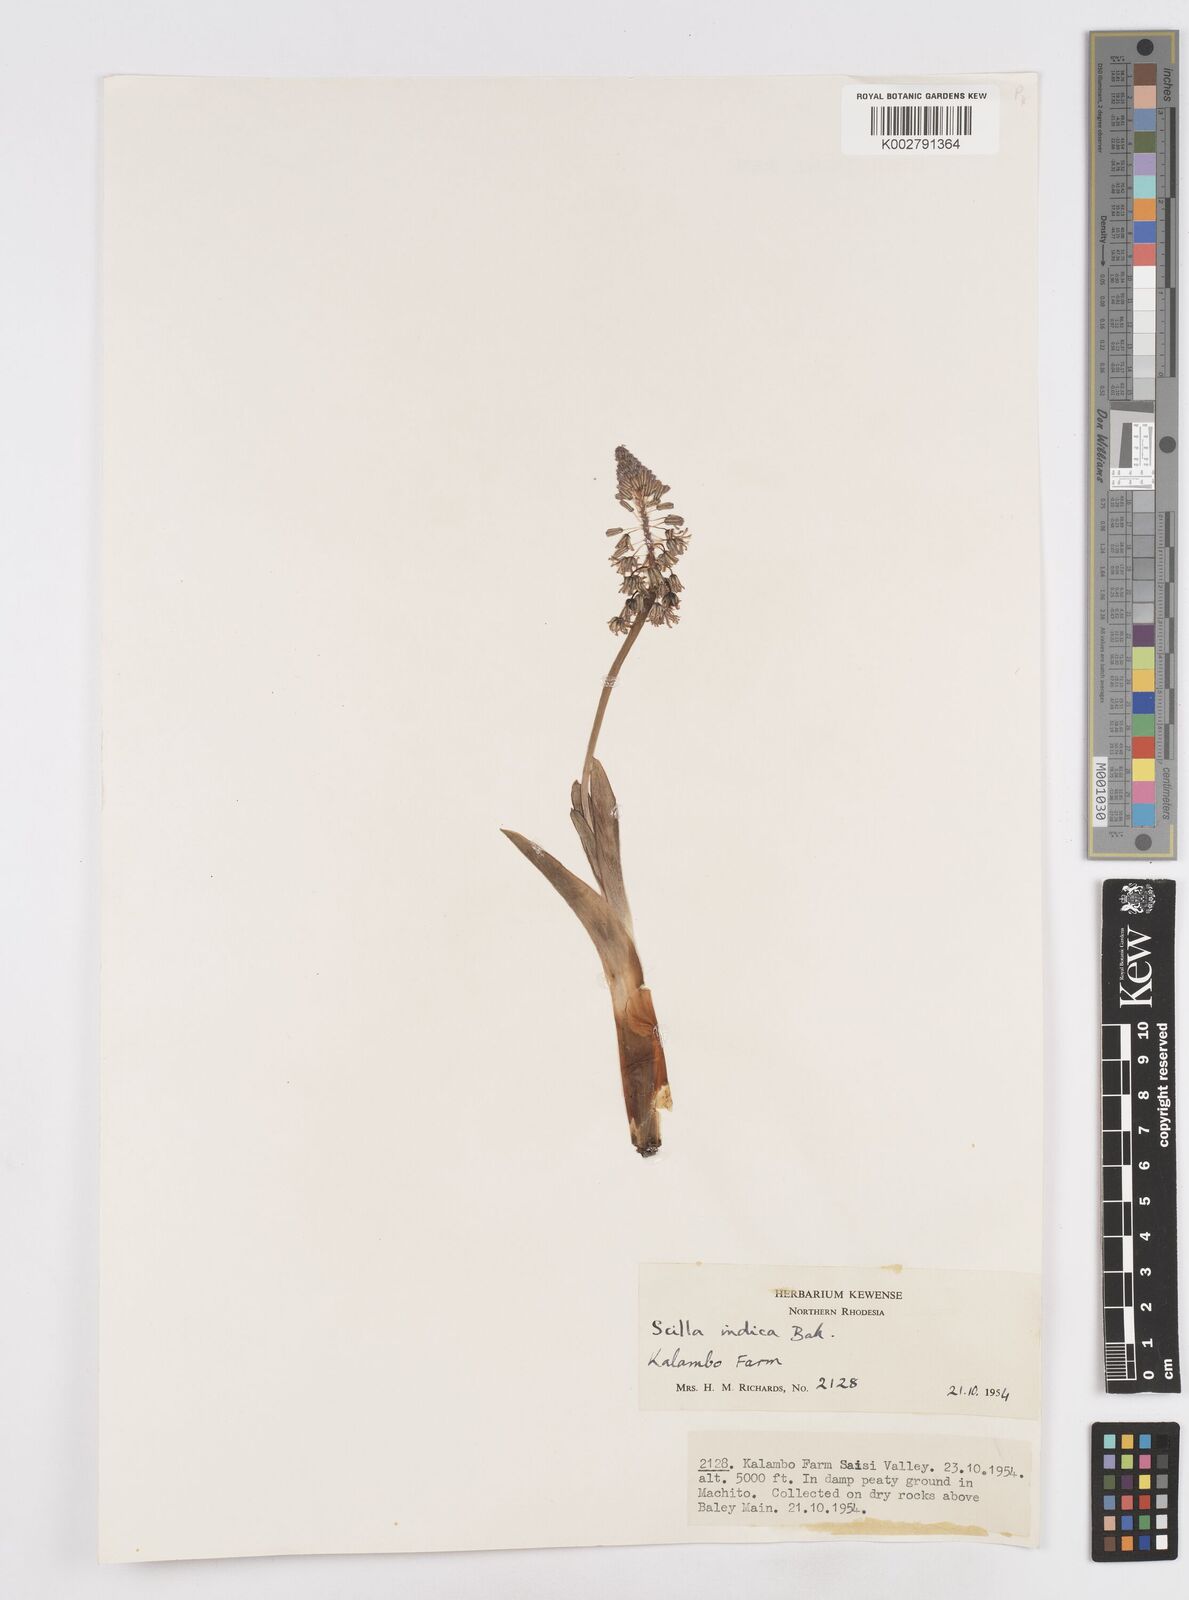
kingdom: Plantae
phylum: Tracheophyta
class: Liliopsida
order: Asparagales
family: Asparagaceae
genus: Ledebouria
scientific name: Ledebouria revoluta
